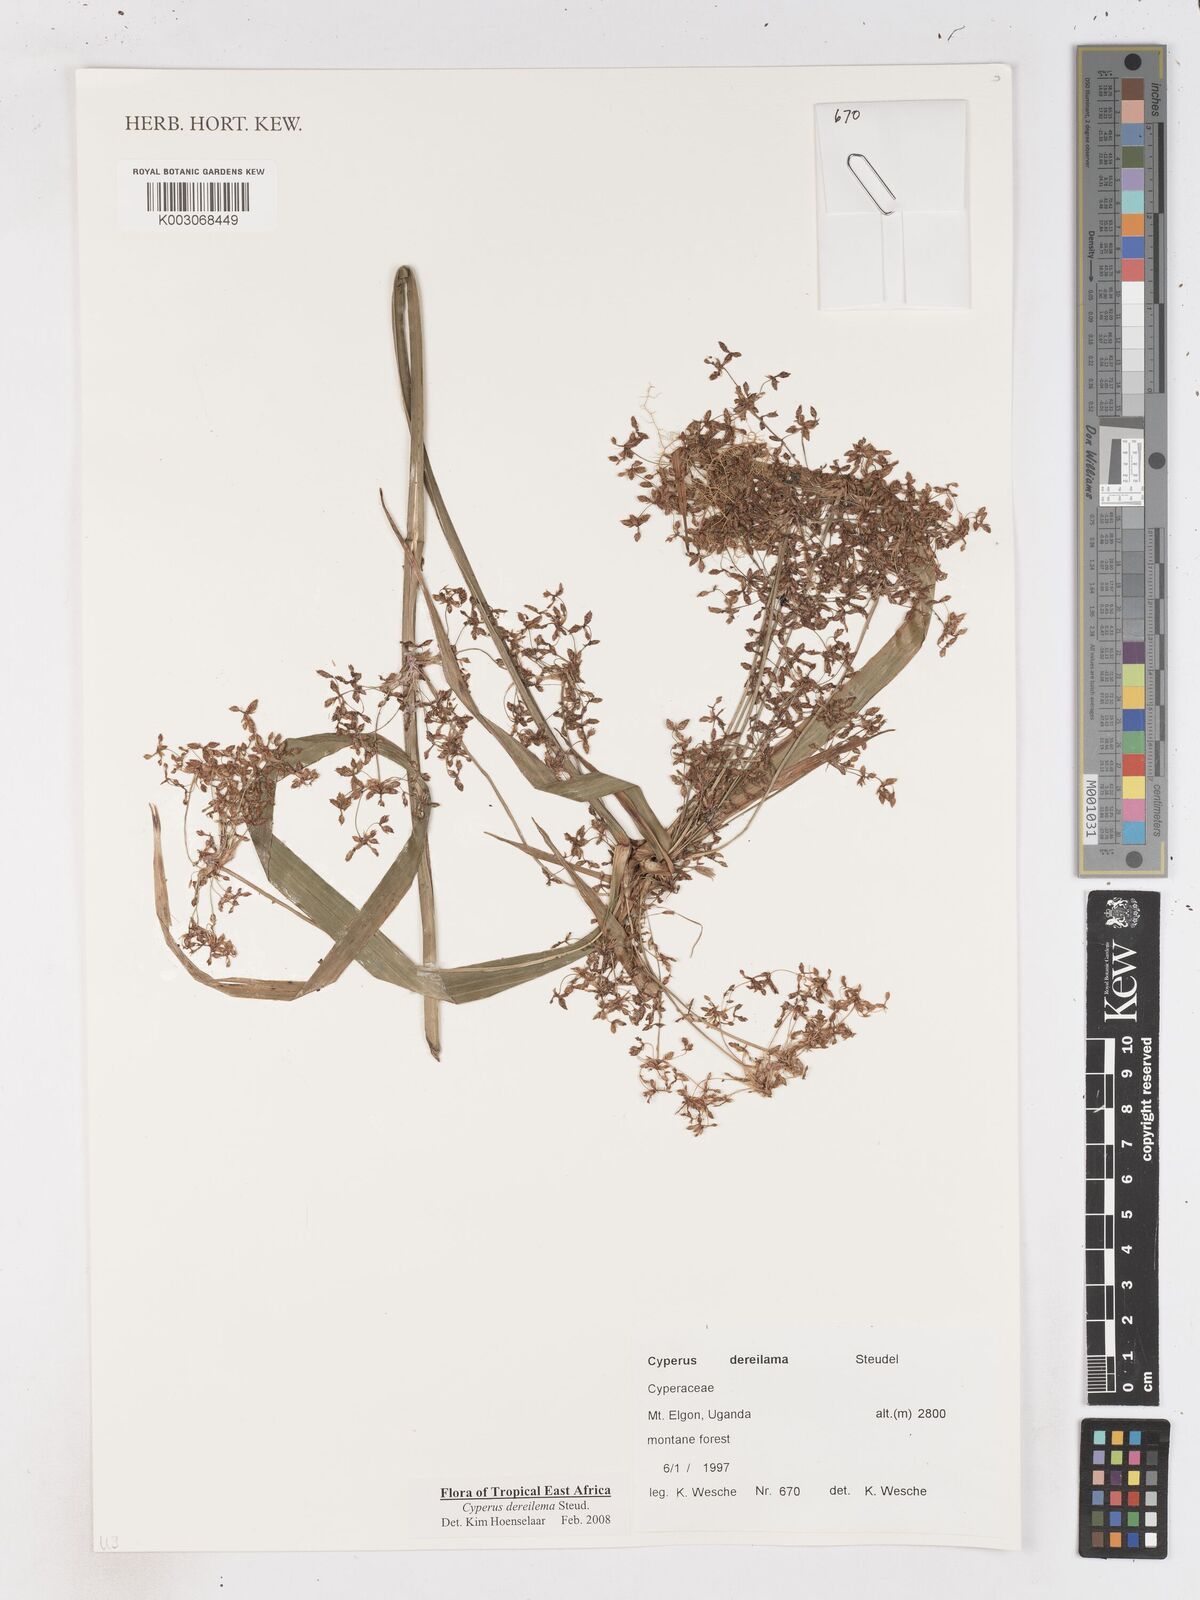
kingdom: Plantae
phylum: Tracheophyta
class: Liliopsida
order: Poales
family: Cyperaceae
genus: Cyperus
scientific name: Cyperus derreilema
